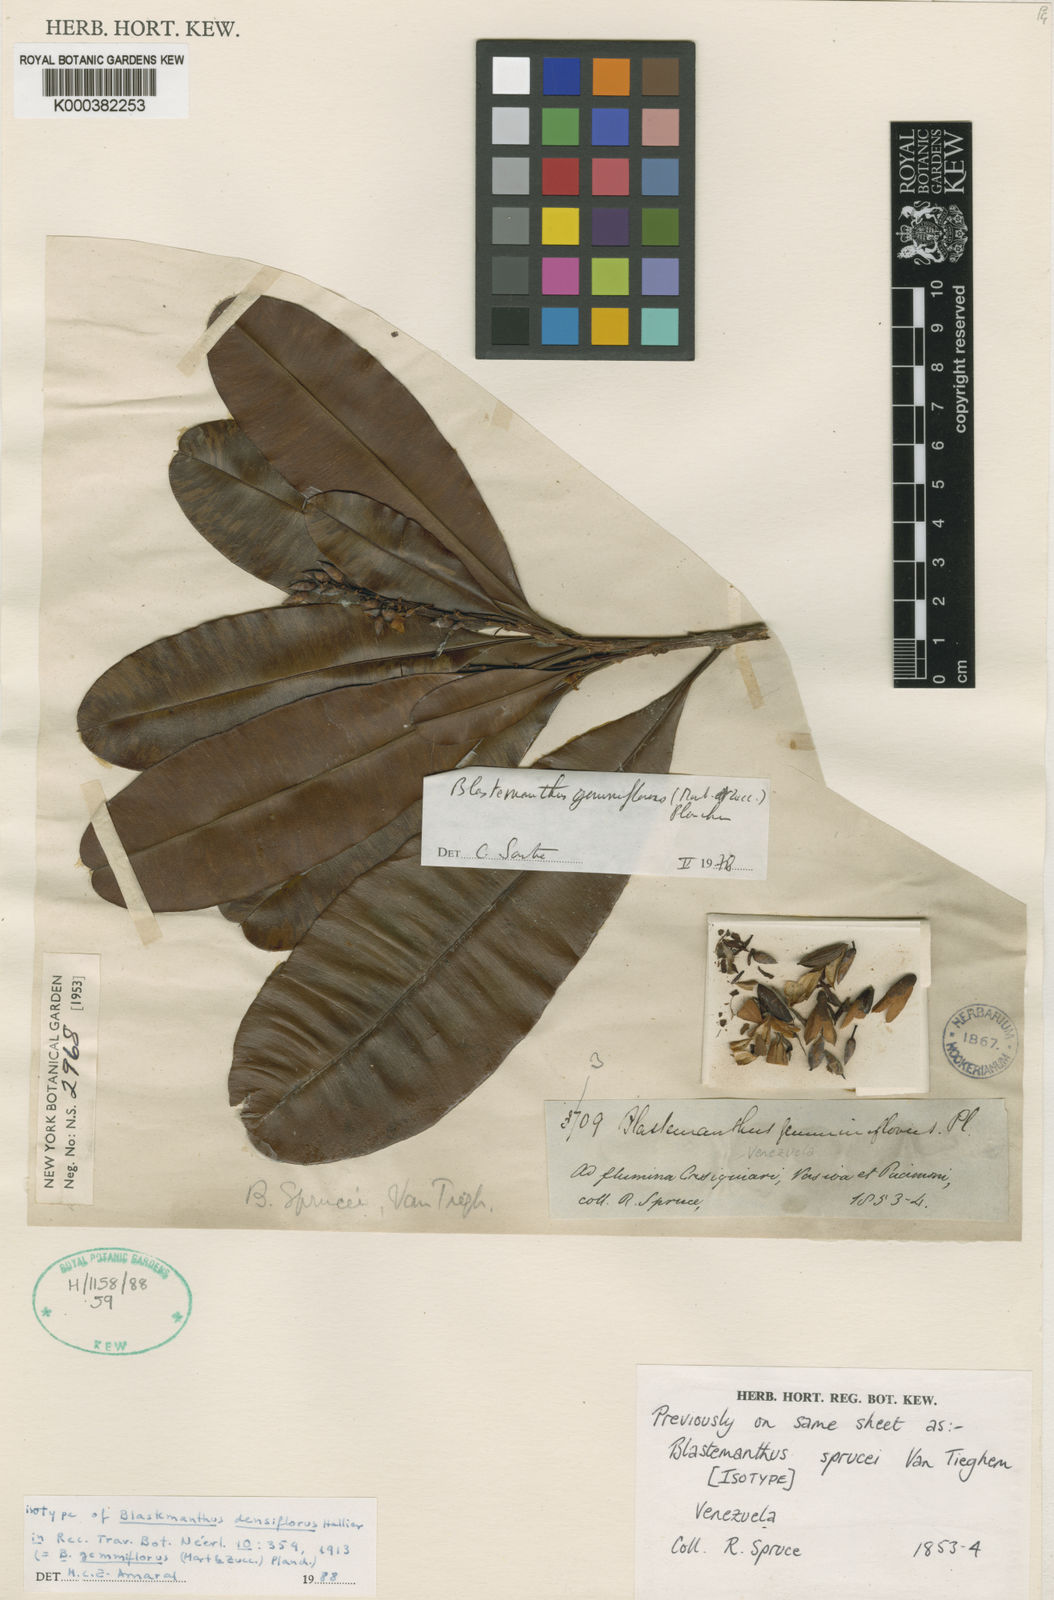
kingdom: Plantae
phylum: Tracheophyta
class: Magnoliopsida
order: Malpighiales
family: Ochnaceae
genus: Blastemanthus
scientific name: Blastemanthus gemmiflorus
